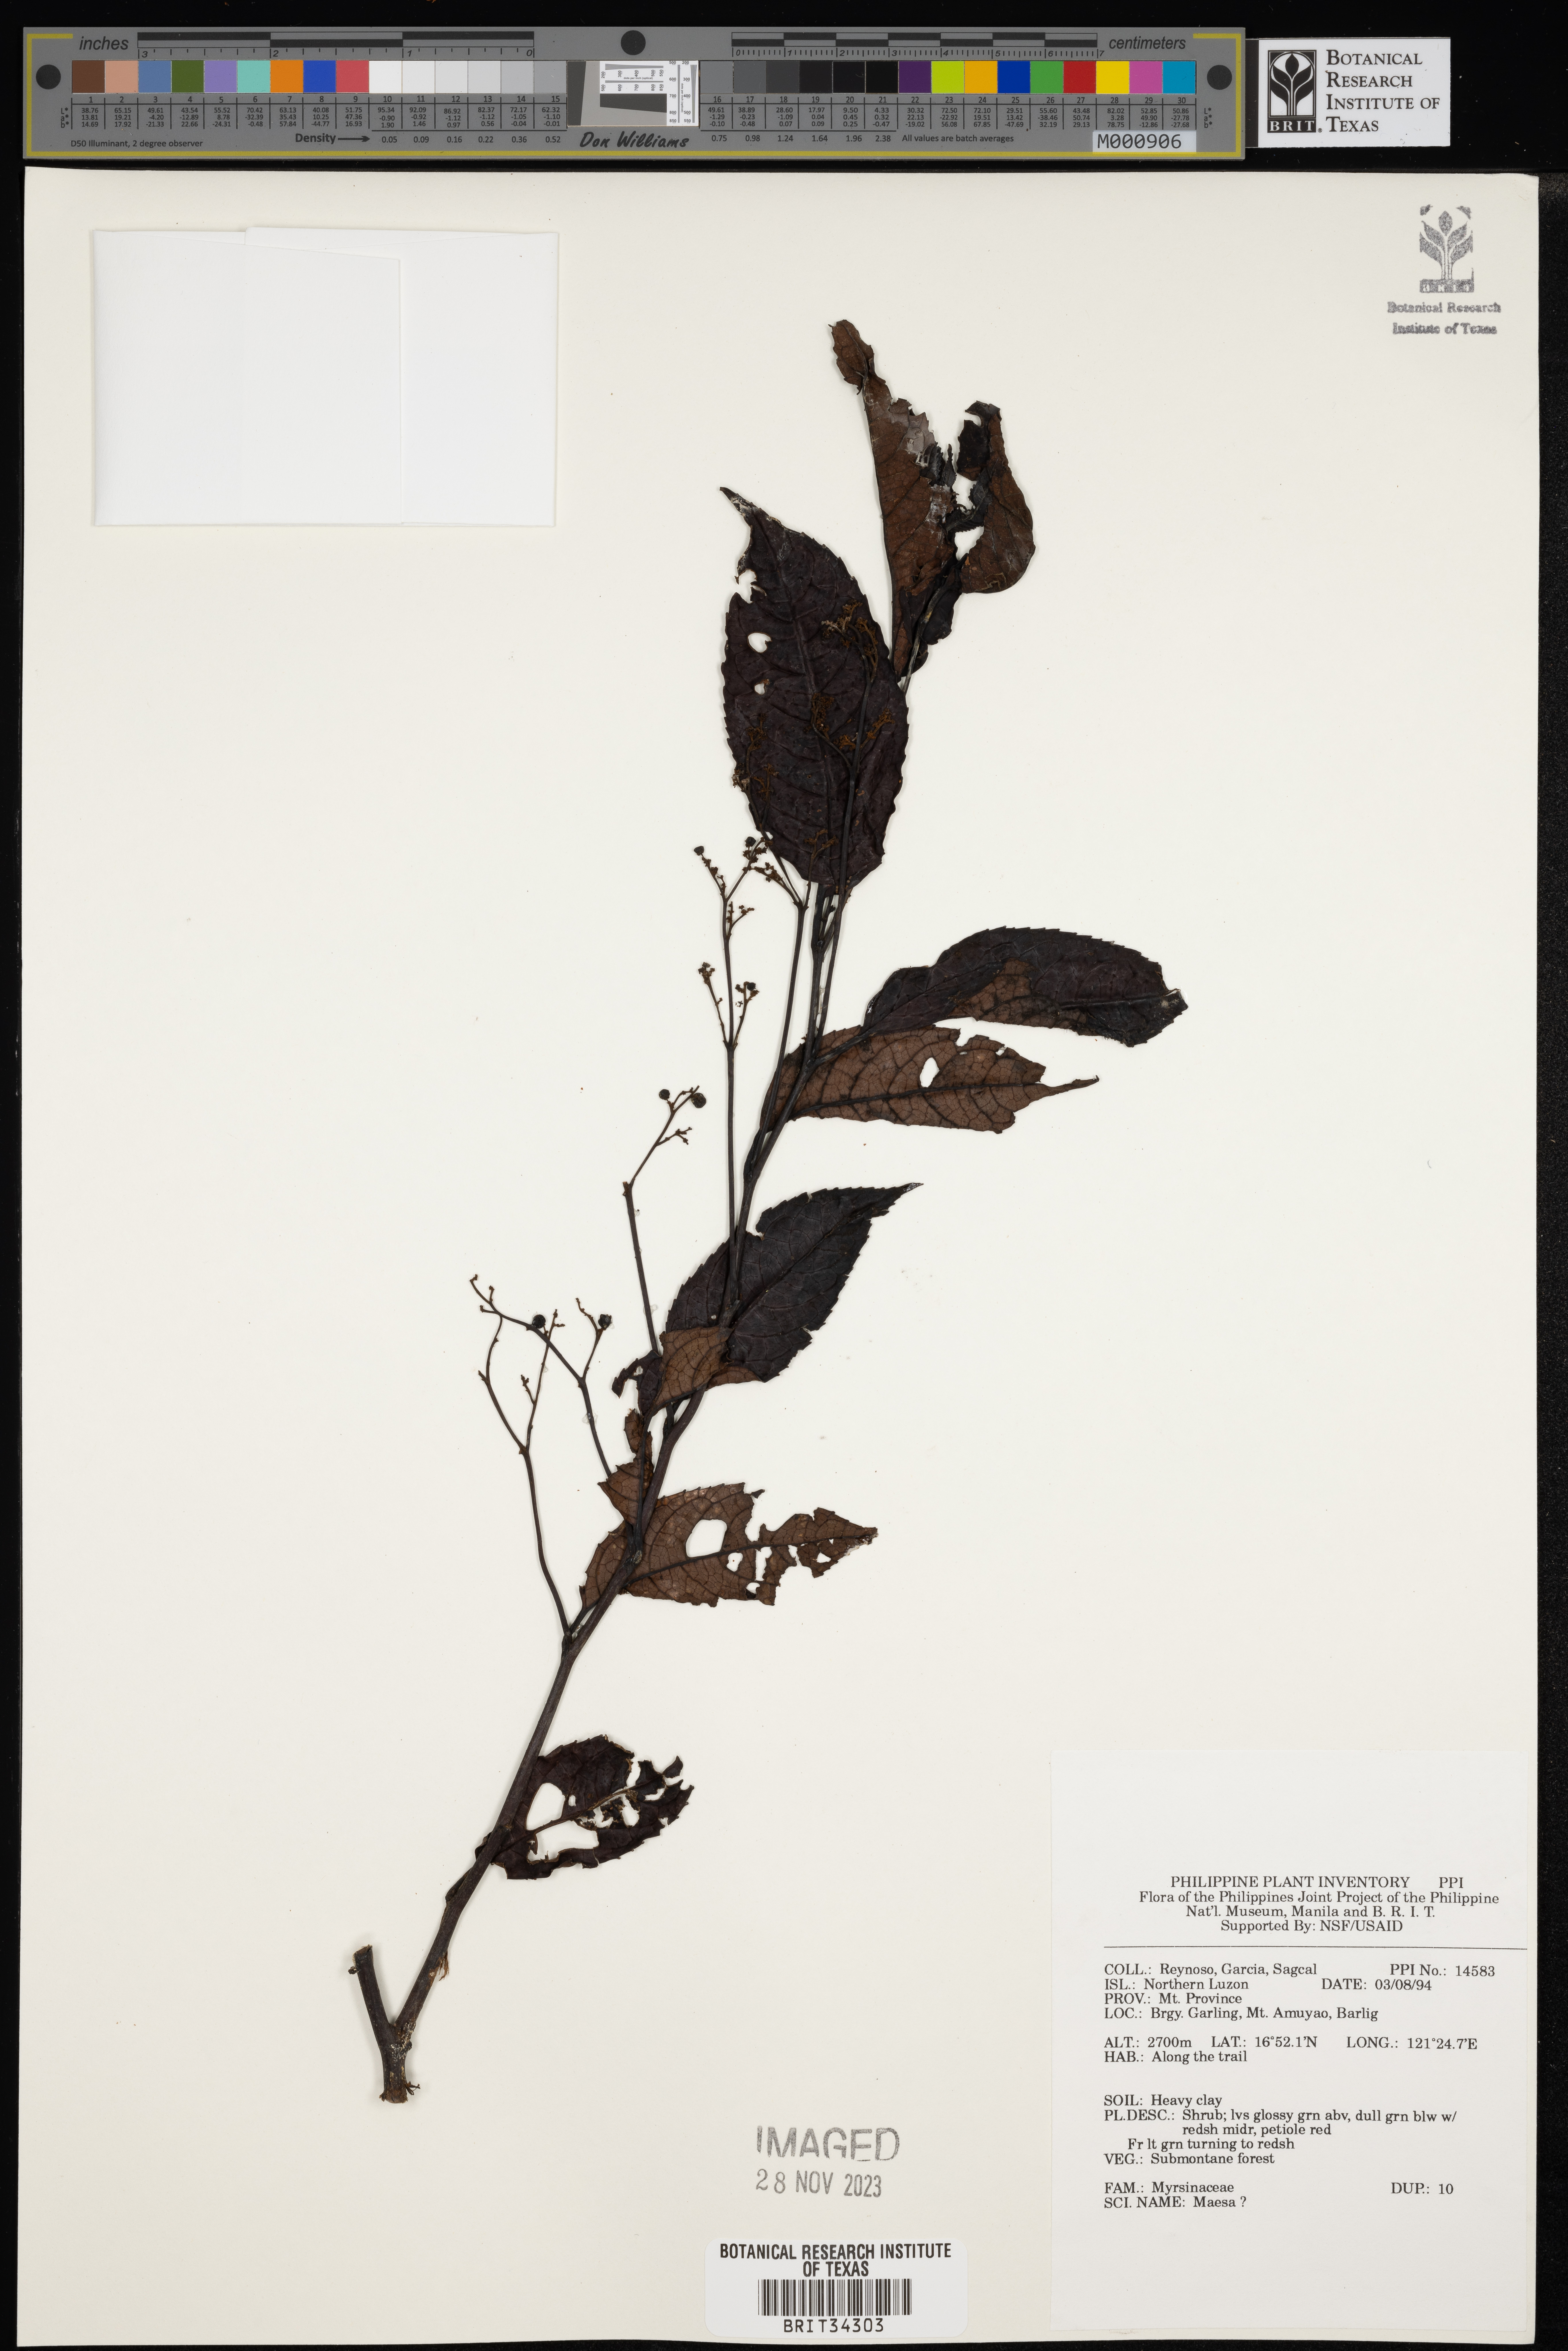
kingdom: Plantae
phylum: Tracheophyta
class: Magnoliopsida
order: Ericales
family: Primulaceae
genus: Maesa
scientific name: Maesa
